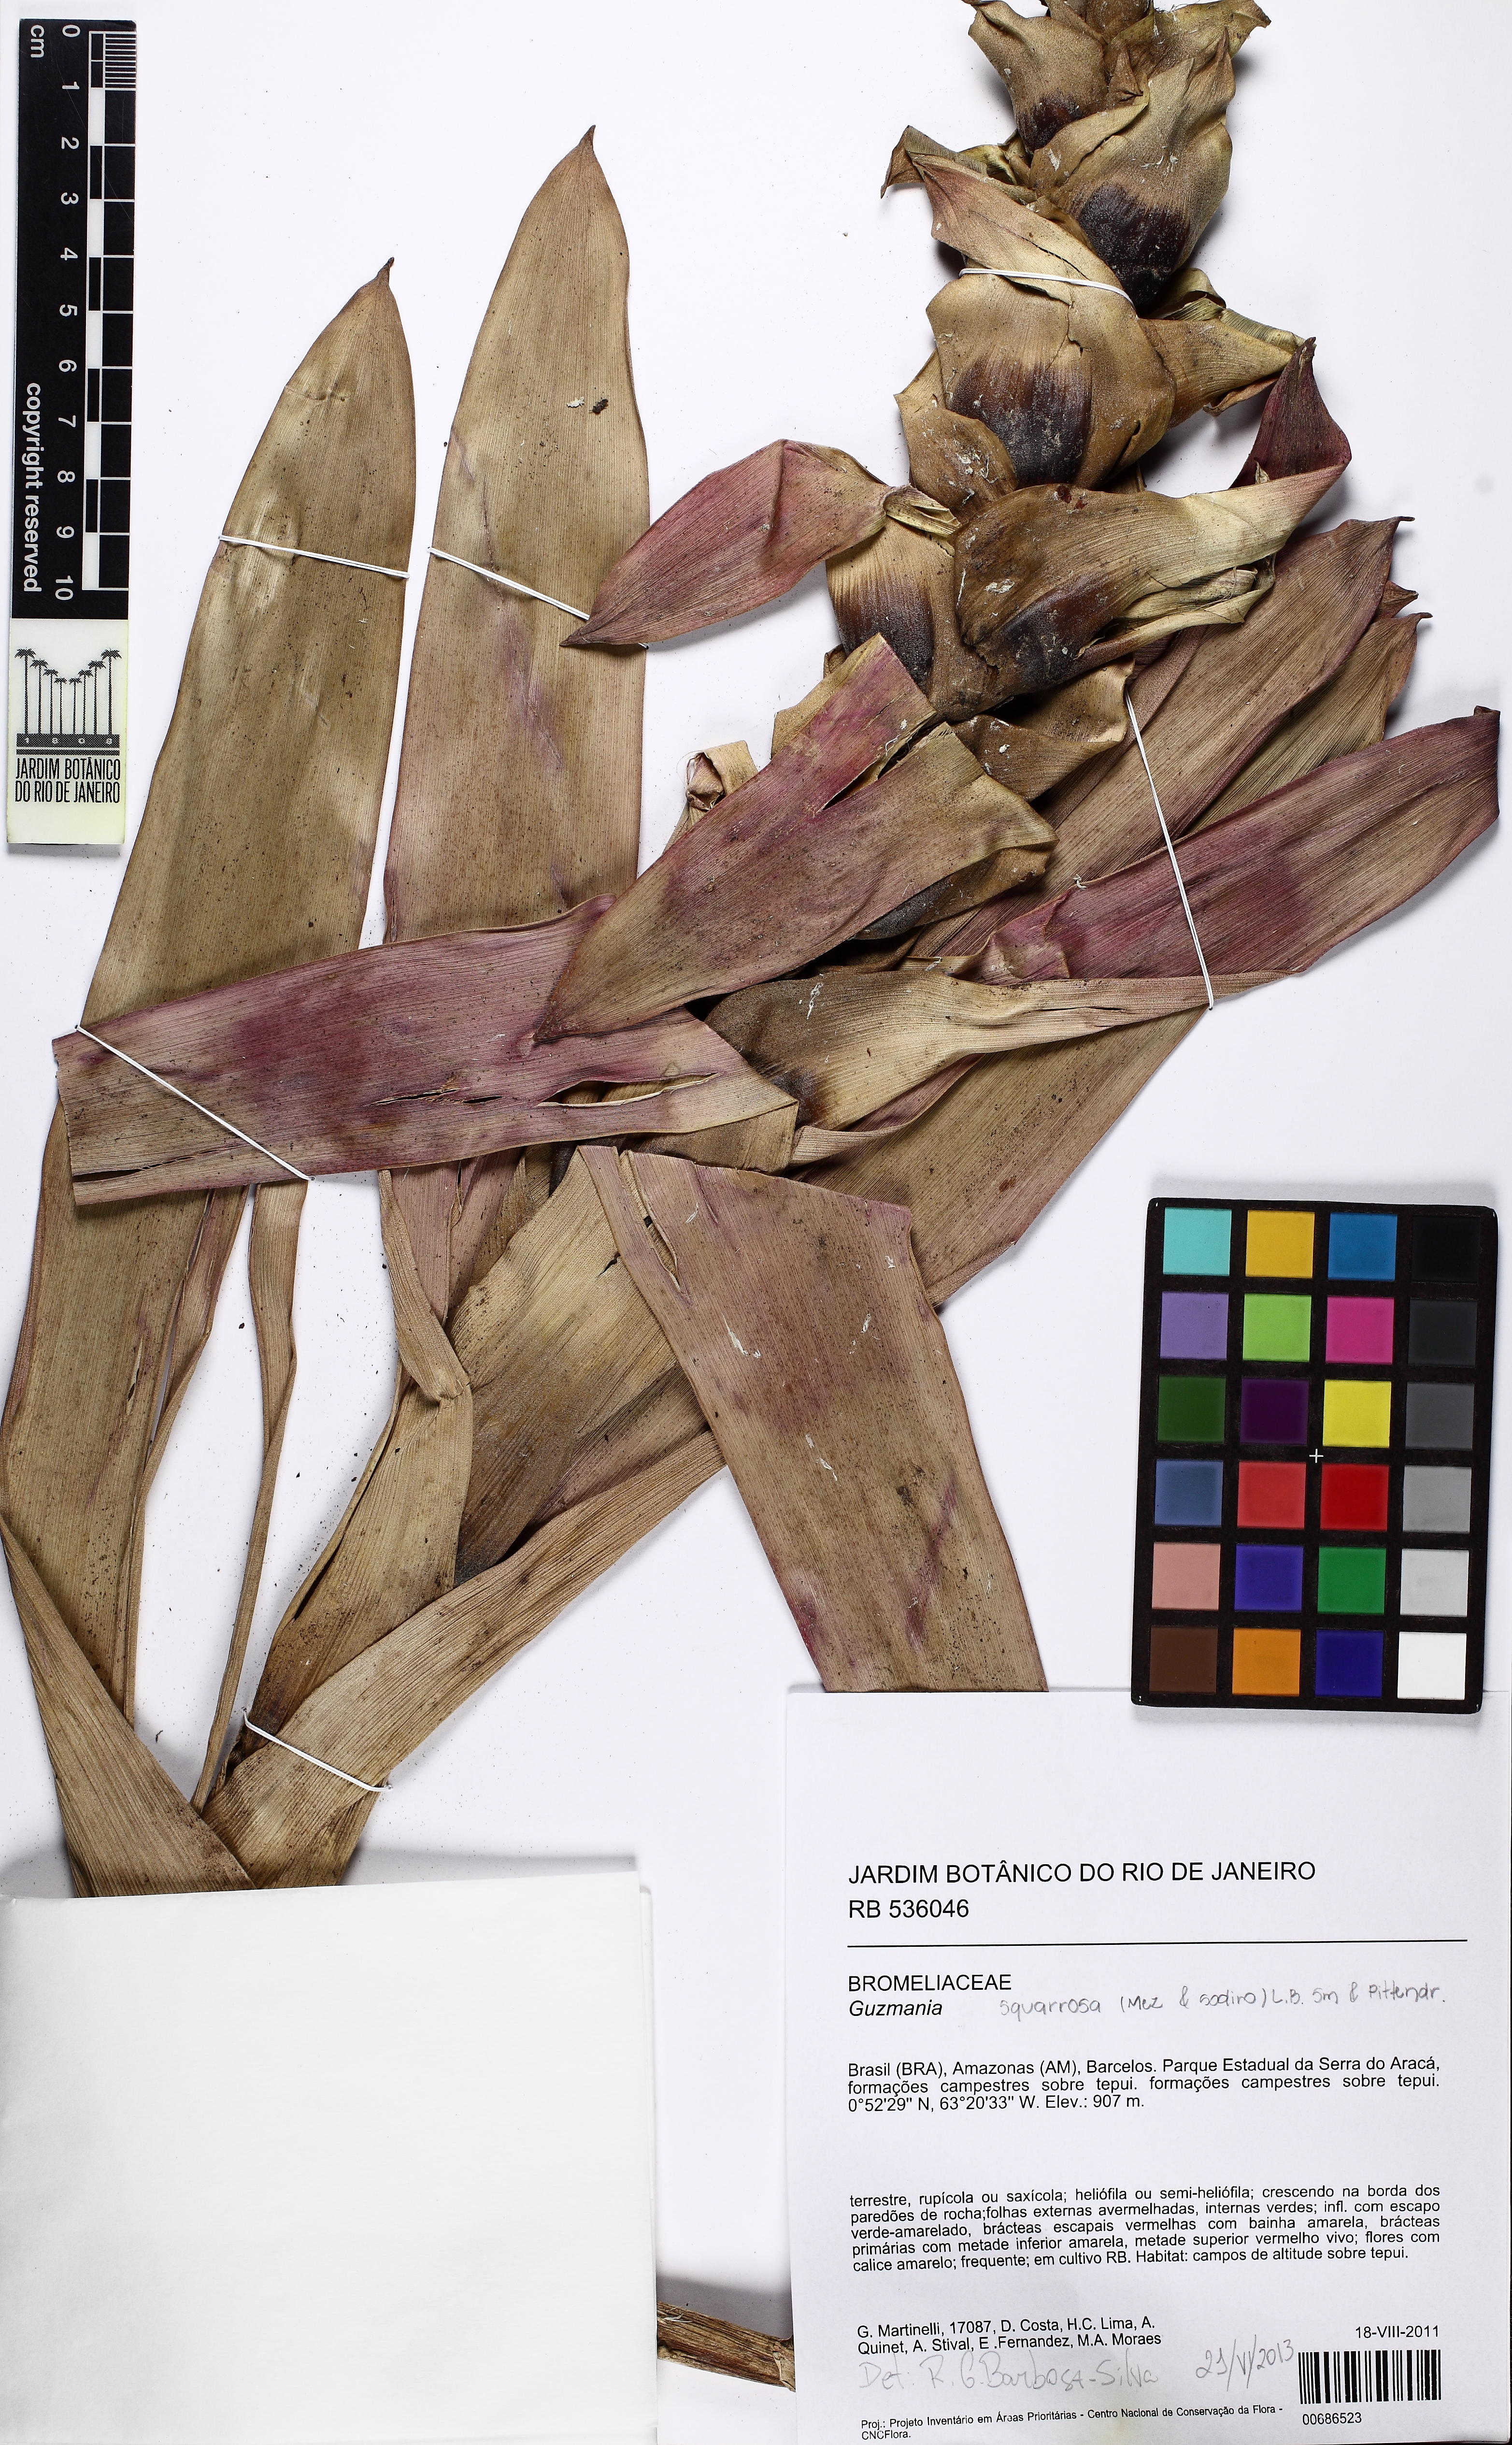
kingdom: Plantae
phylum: Tracheophyta
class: Liliopsida
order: Poales
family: Bromeliaceae
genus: Guzmania
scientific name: Guzmania squarrosa
